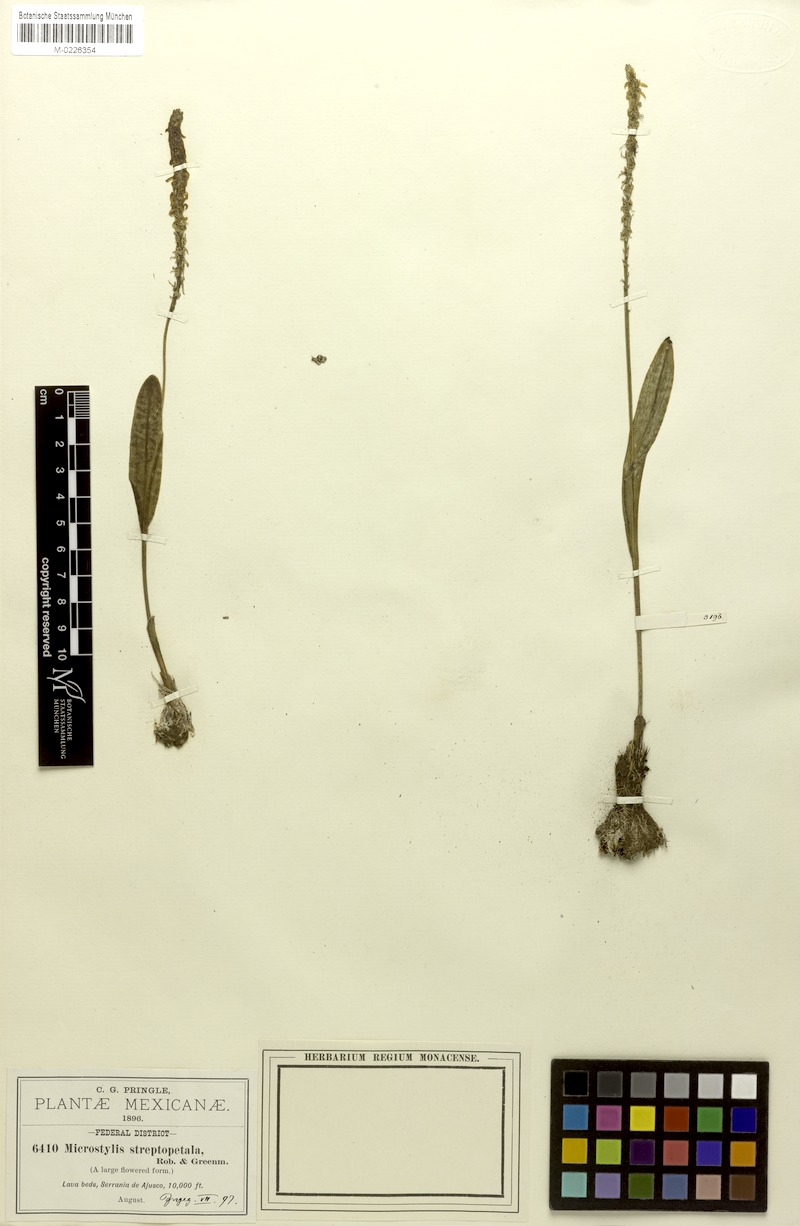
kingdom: Plantae
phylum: Tracheophyta
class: Liliopsida
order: Asparagales
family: Orchidaceae
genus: Malaxis
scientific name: Malaxis streptopetala
